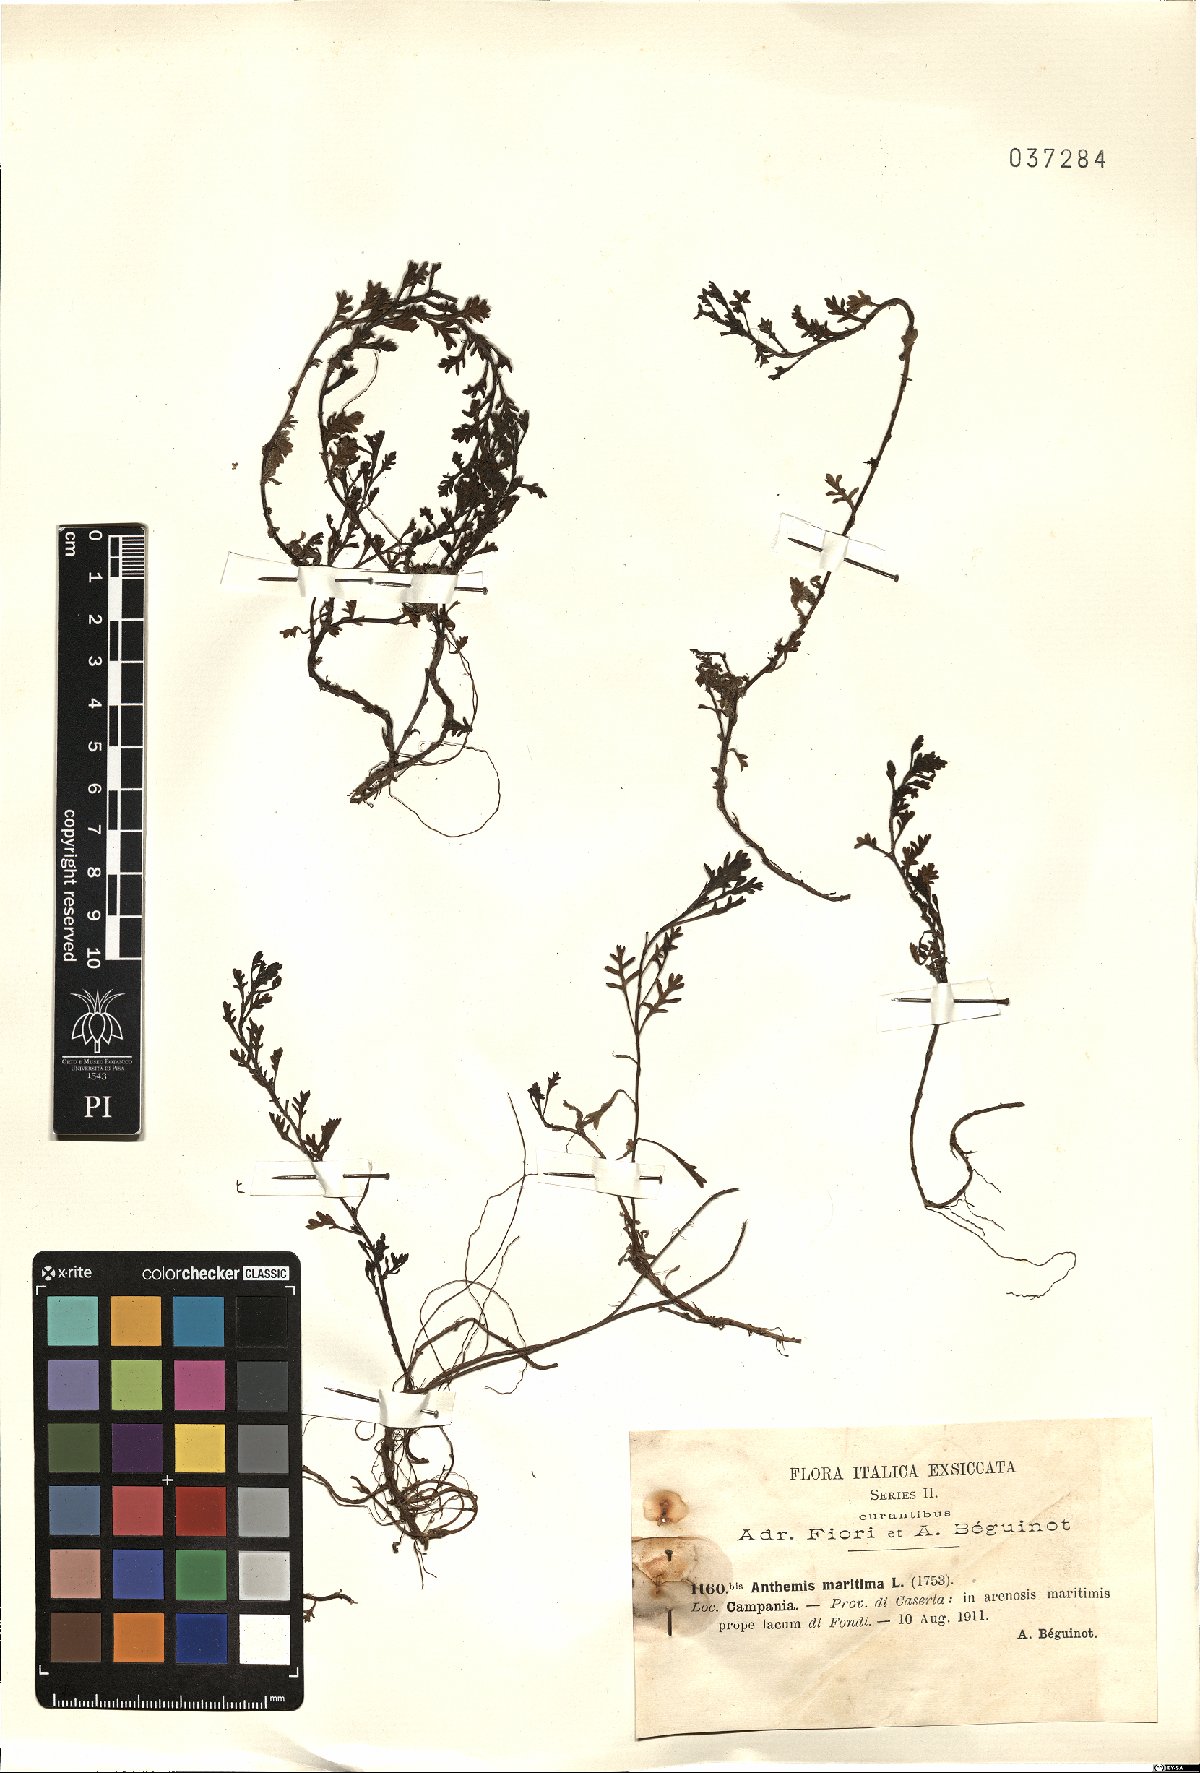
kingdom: Plantae
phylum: Tracheophyta
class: Magnoliopsida
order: Asterales
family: Asteraceae
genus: Anthemis
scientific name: Anthemis maritima
